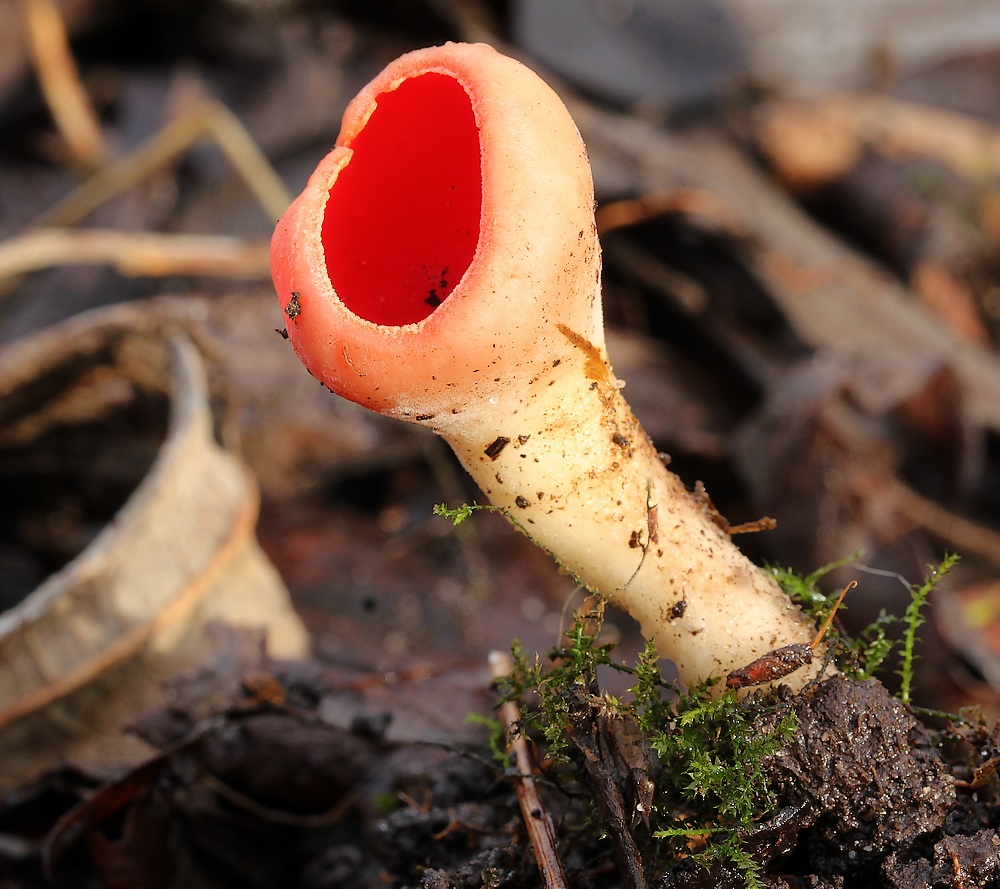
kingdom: Fungi
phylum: Ascomycota
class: Pezizomycetes
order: Pezizales
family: Sarcoscyphaceae
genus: Sarcoscypha
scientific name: Sarcoscypha austriaca
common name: krølhåret pragtbæger
